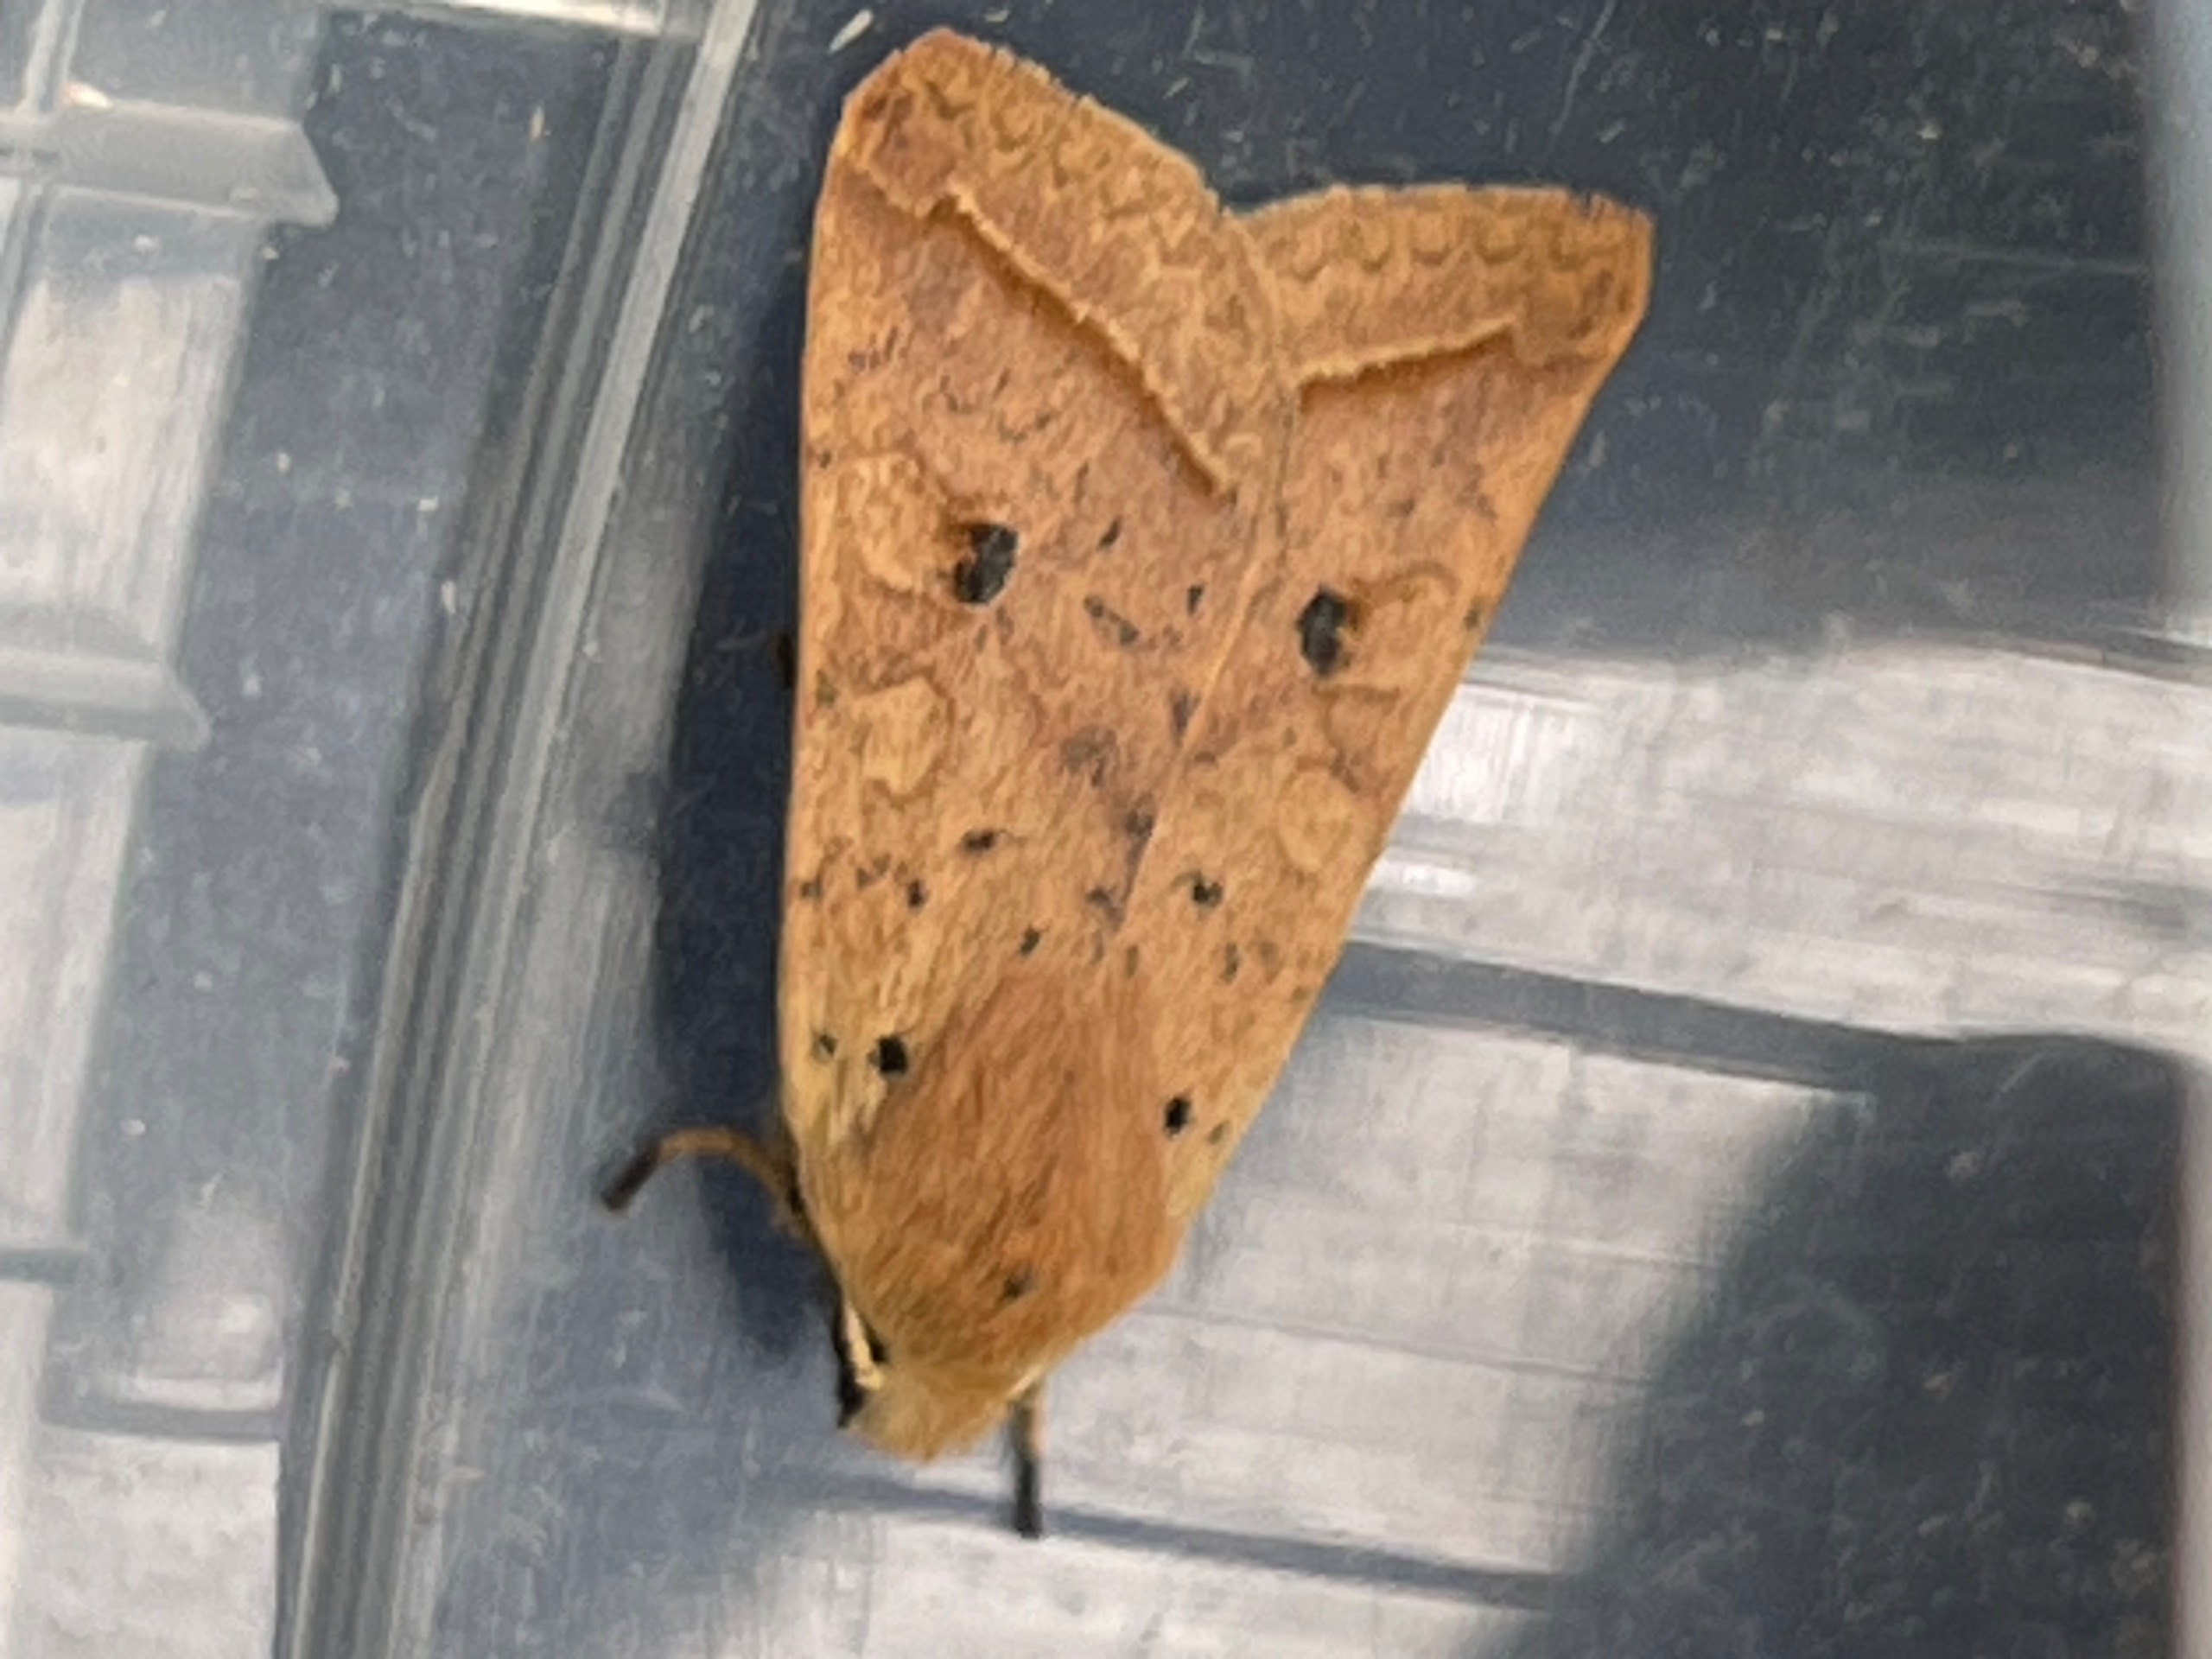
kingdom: Animalia
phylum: Arthropoda
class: Insecta
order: Lepidoptera
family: Noctuidae
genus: Agrochola
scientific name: Agrochola Leptologia macilenta
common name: Mager jordfarveugle
